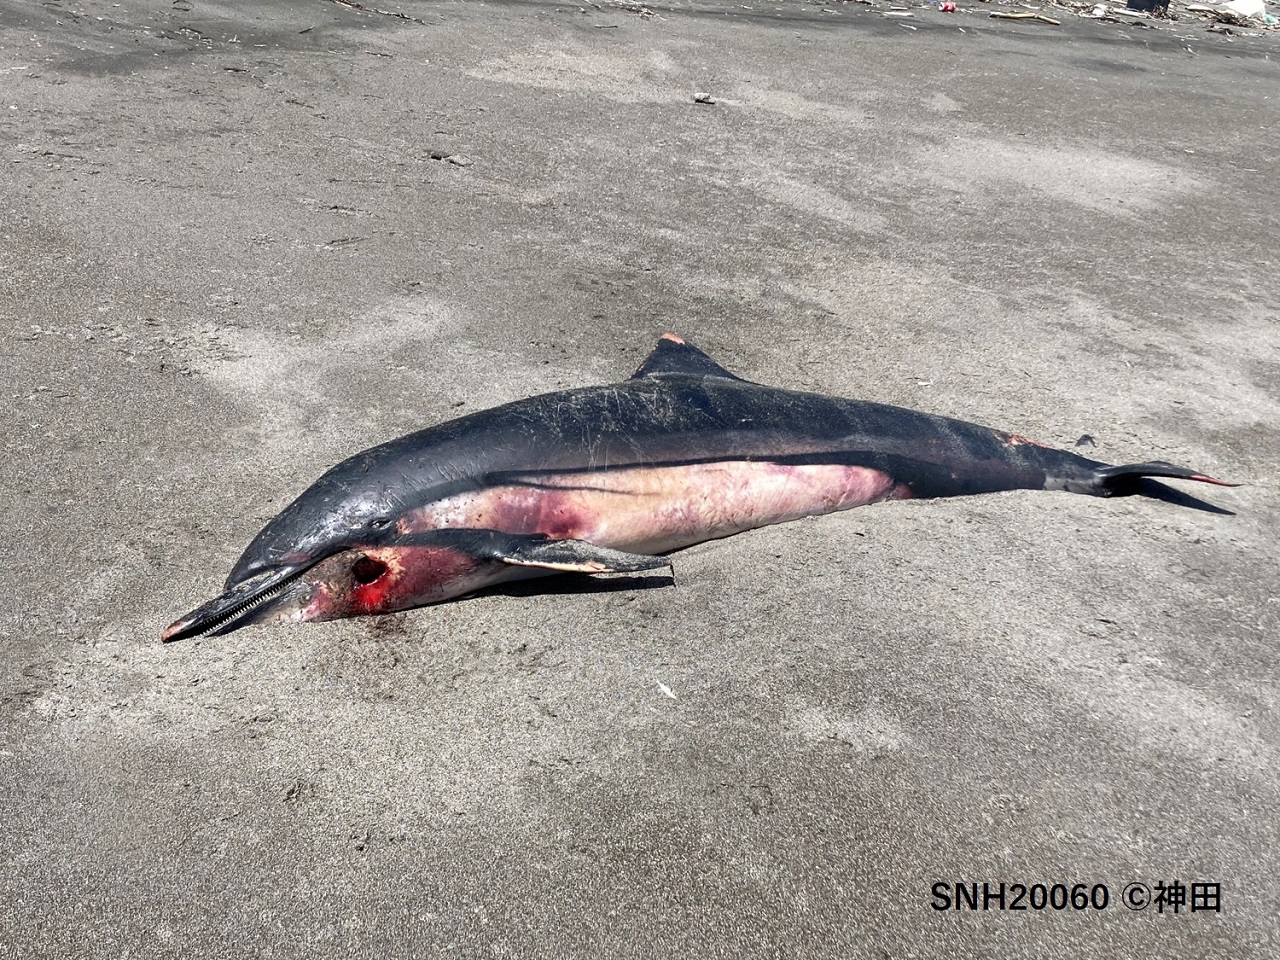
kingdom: Animalia
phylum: Chordata
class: Mammalia
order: Cetacea
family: Delphinidae
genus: Stenella
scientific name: Stenella coeruleoalba
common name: Striped dolphin
